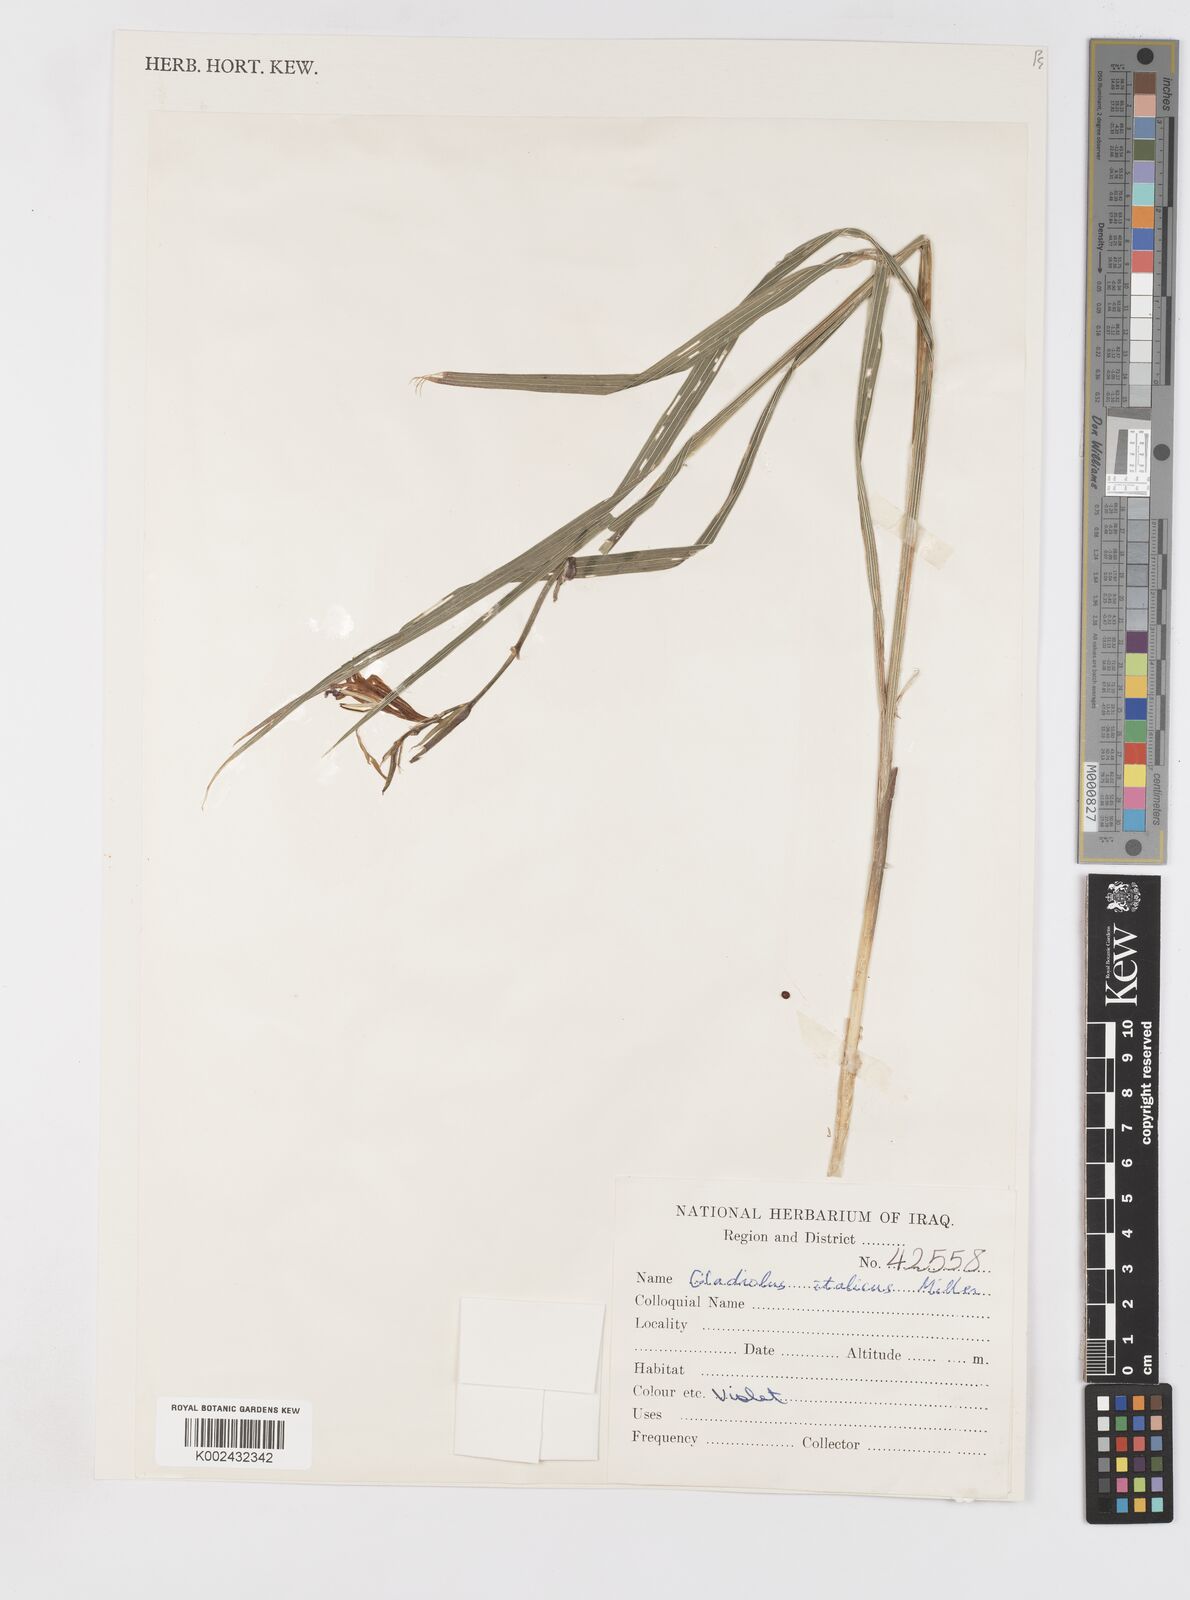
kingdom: Plantae
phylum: Tracheophyta
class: Liliopsida
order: Asparagales
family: Iridaceae
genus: Gladiolus
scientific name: Gladiolus italicus
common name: Field gladiolus
